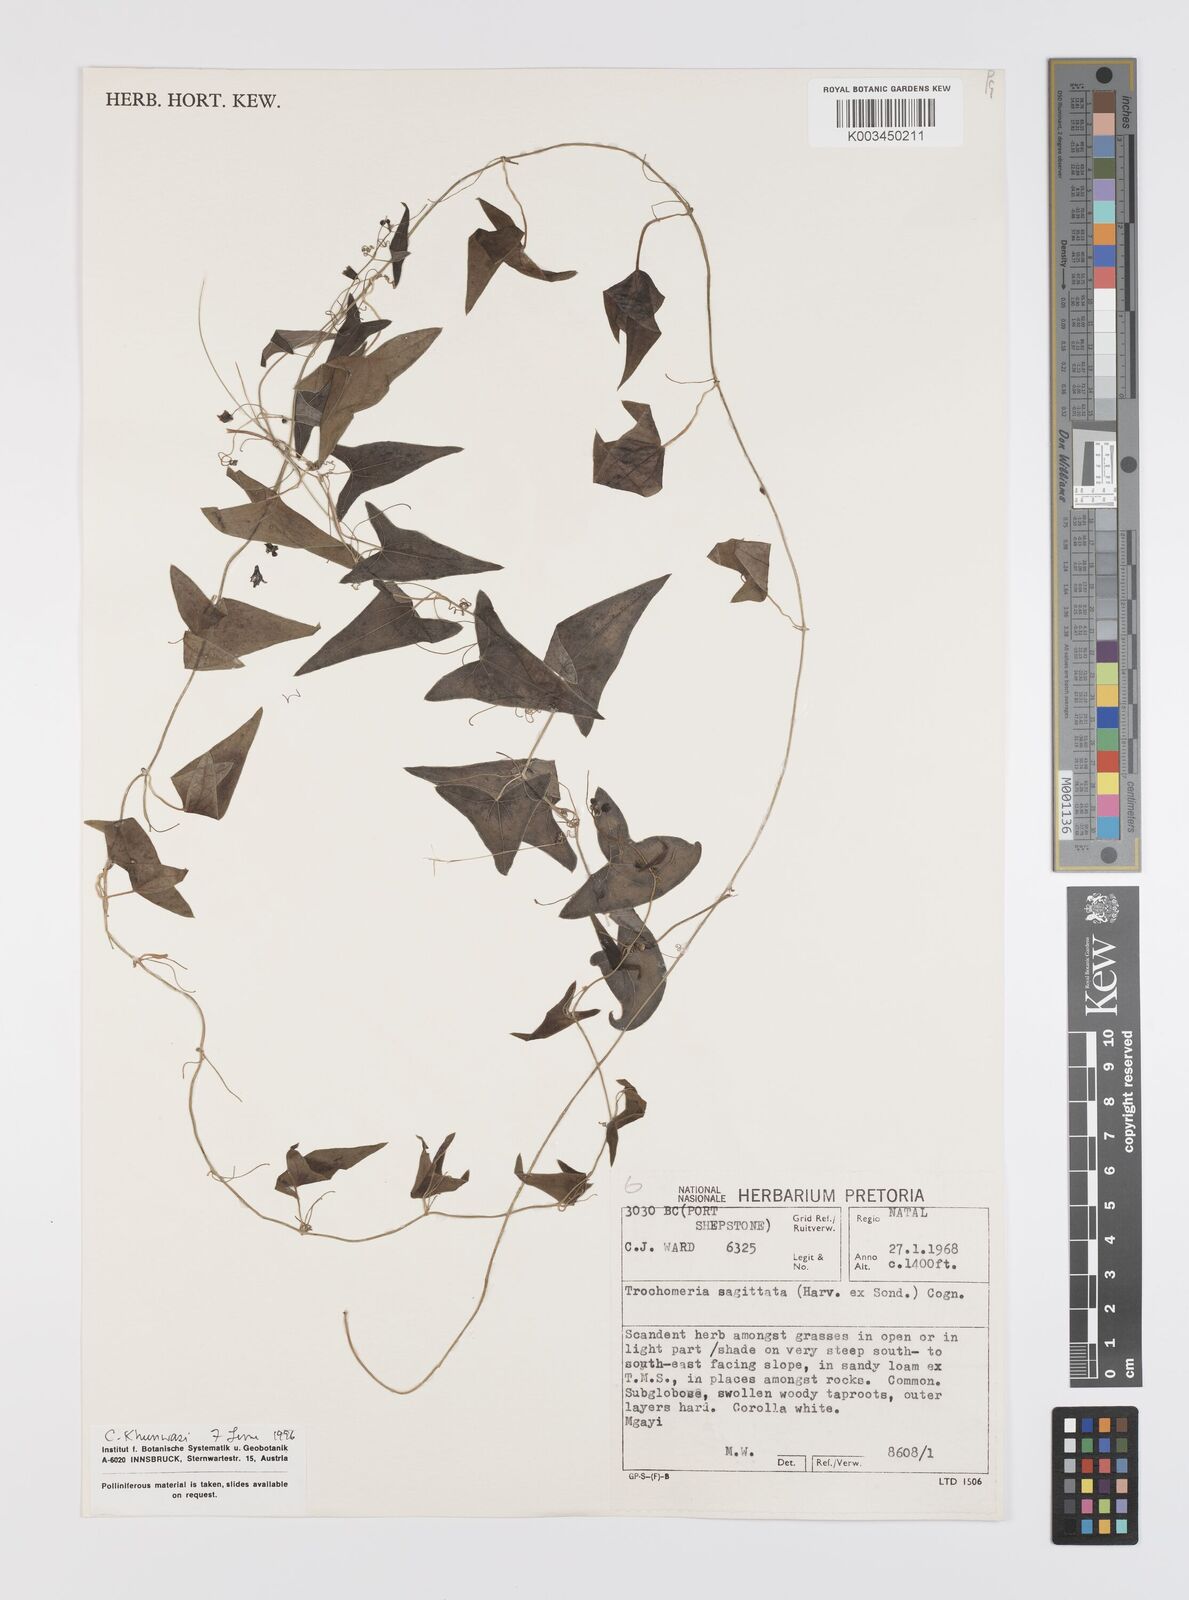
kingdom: Plantae
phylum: Tracheophyta
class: Magnoliopsida
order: Cucurbitales
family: Cucurbitaceae
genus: Trochomeria
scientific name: Trochomeria sagittata
